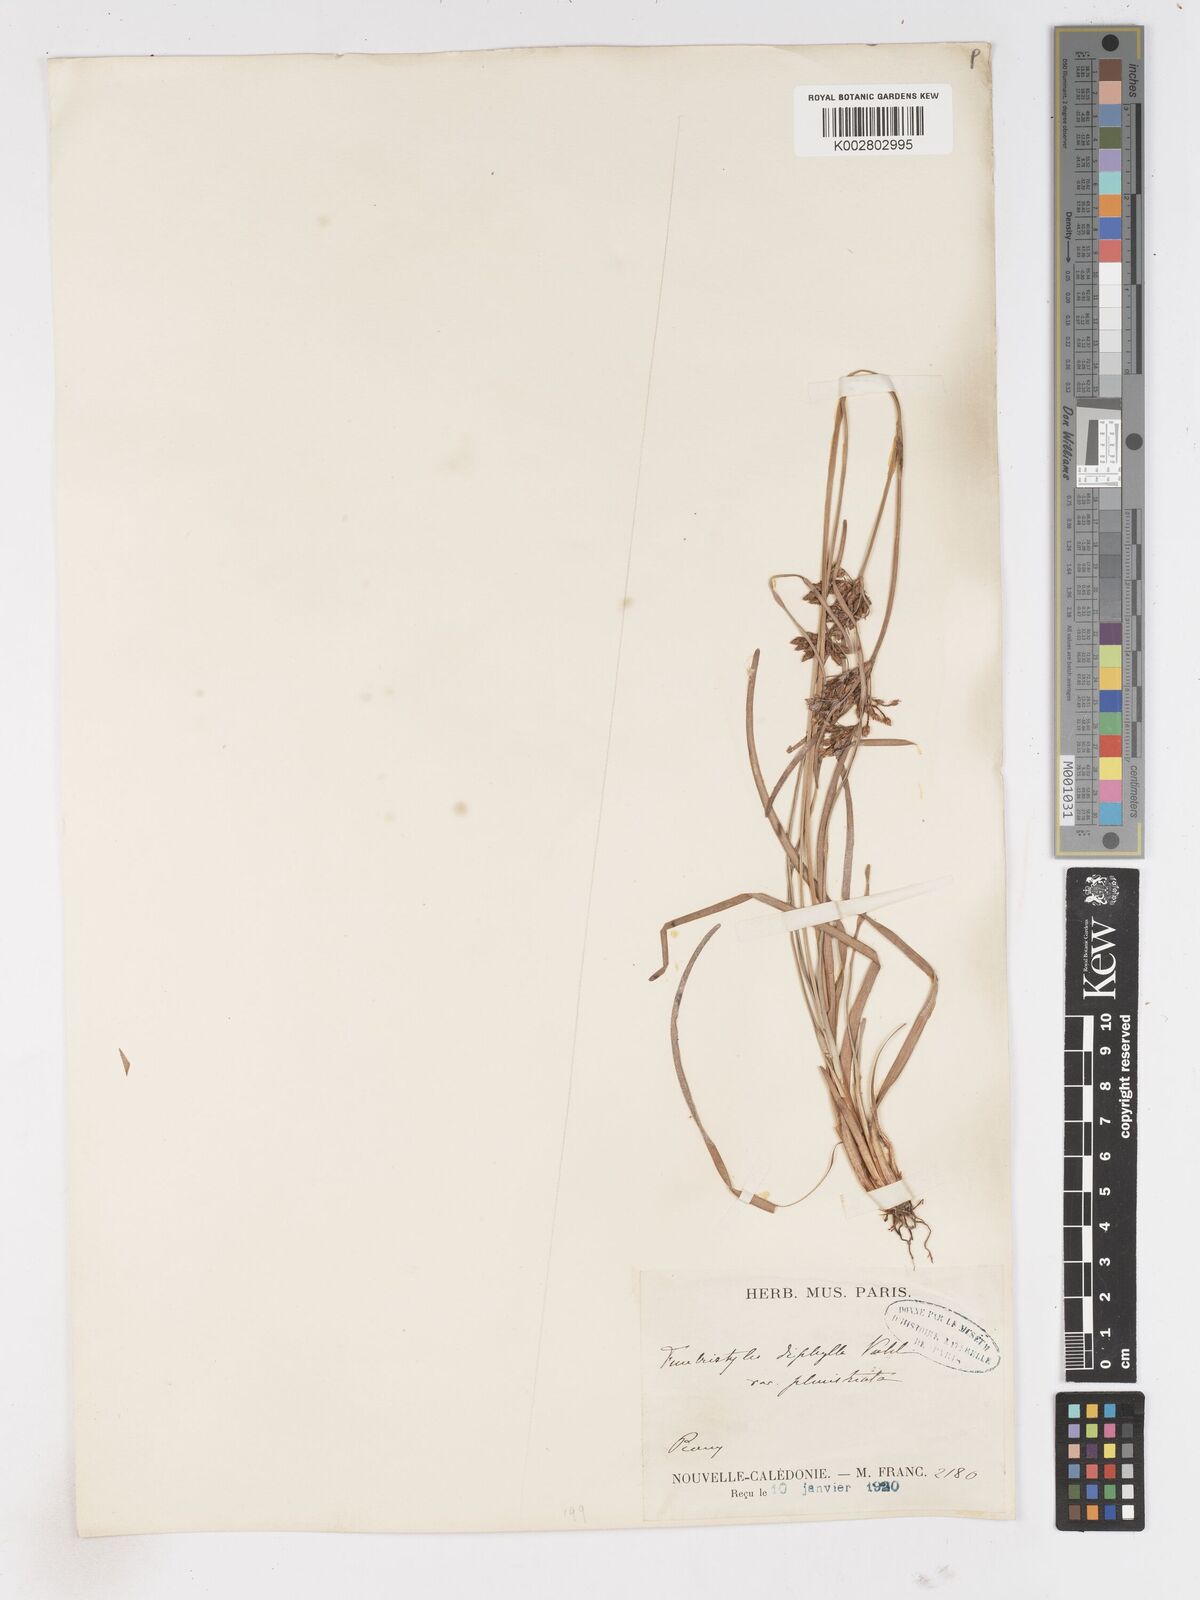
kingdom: Plantae
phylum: Tracheophyta
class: Liliopsida
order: Poales
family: Cyperaceae
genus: Fimbristylis
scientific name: Fimbristylis dichotoma
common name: Forked fimbry
